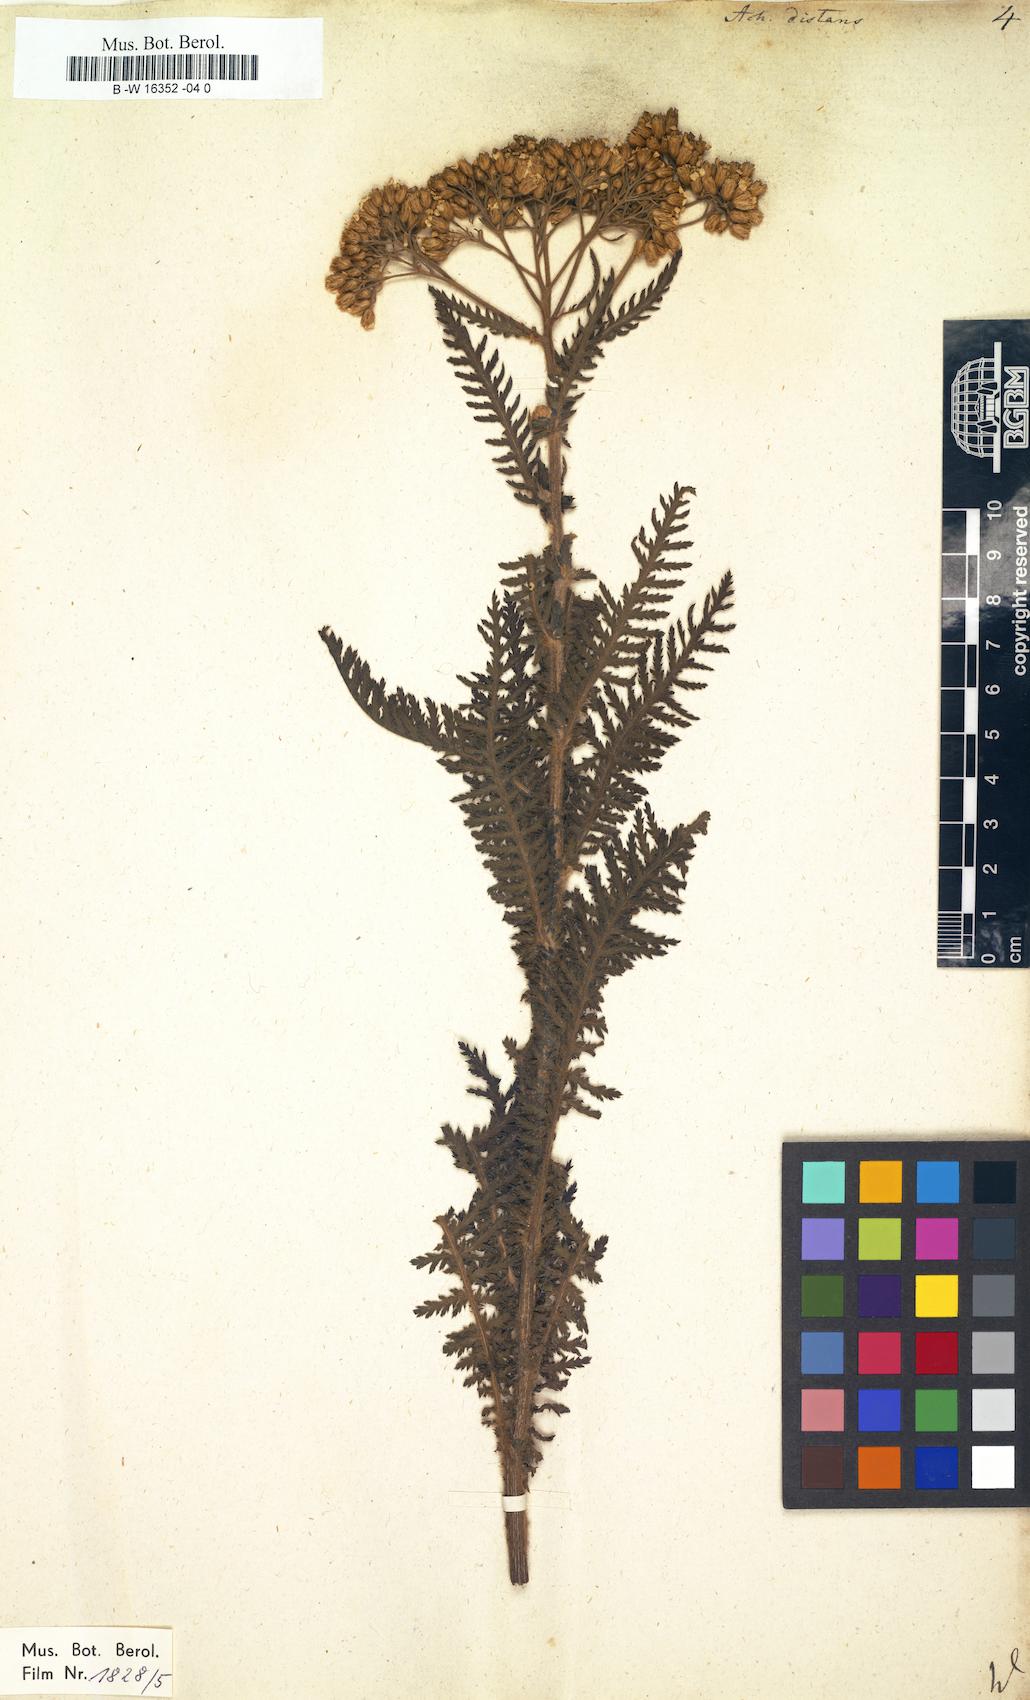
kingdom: Plantae
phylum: Tracheophyta
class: Magnoliopsida
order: Asterales
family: Asteraceae
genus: Achillea
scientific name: Achillea distans
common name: Tall yarrow
